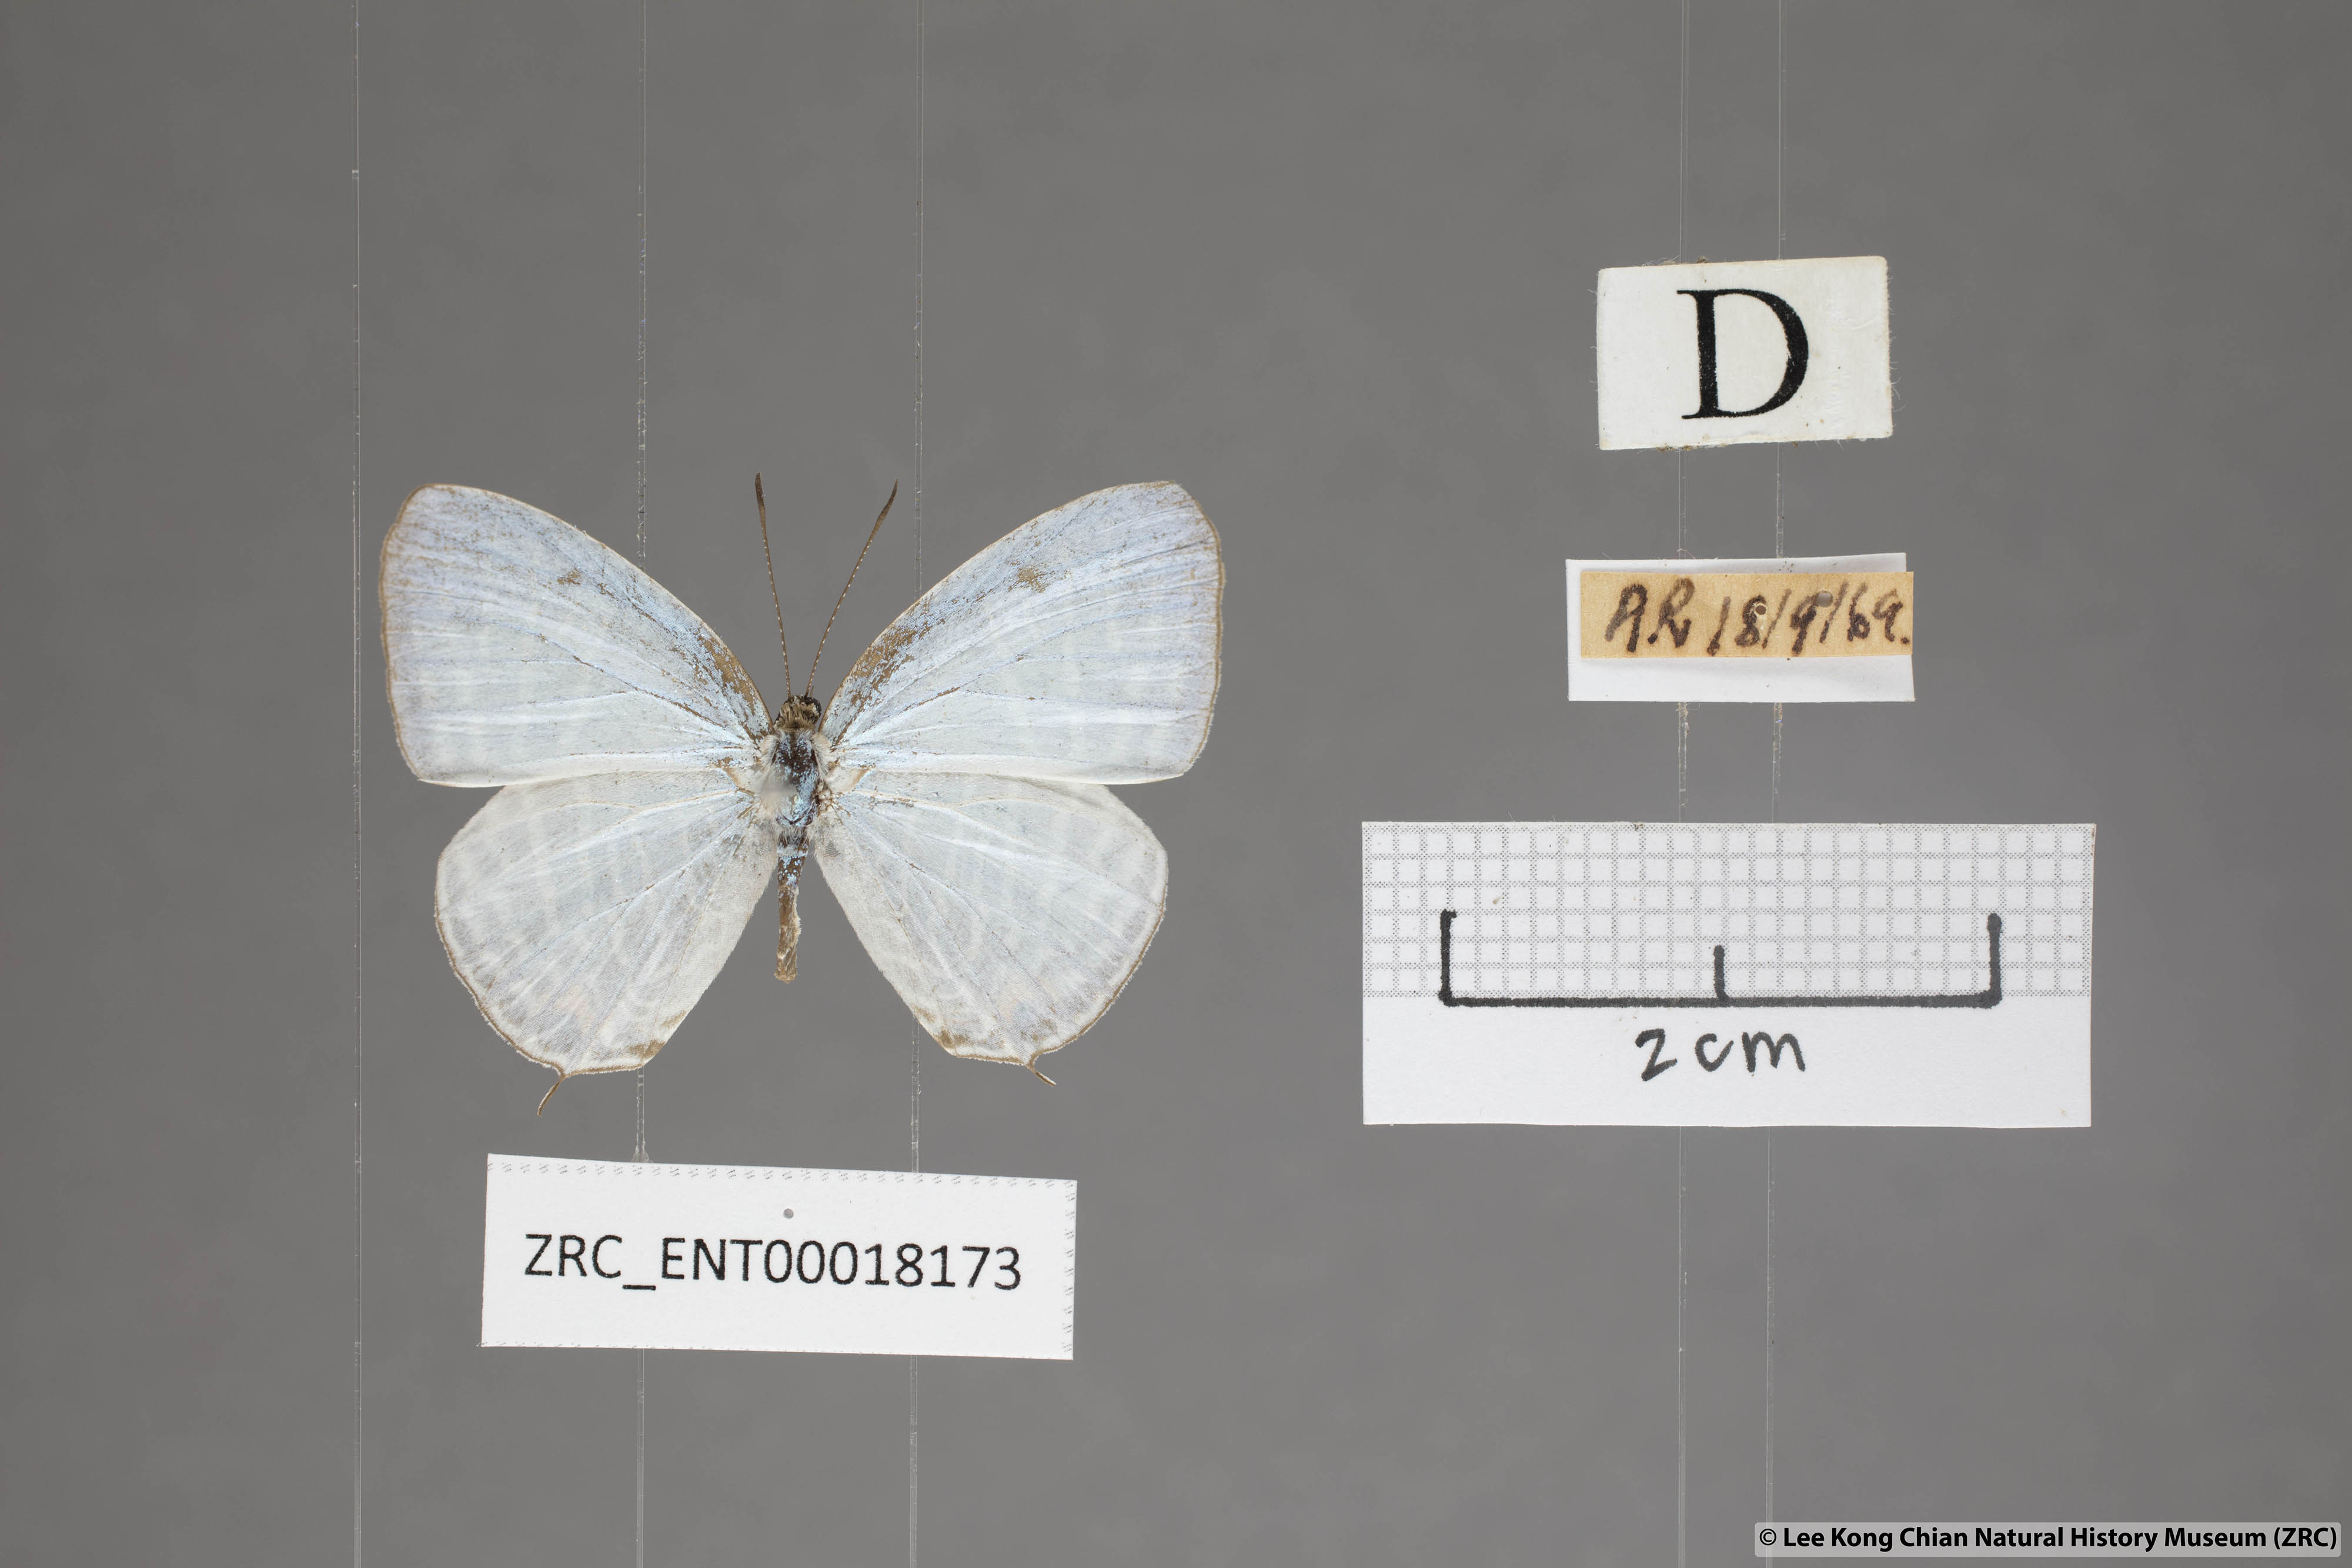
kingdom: Animalia
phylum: Arthropoda
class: Insecta
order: Lepidoptera
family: Lycaenidae
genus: Jamides
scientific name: Jamides pura
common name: White cerulean
